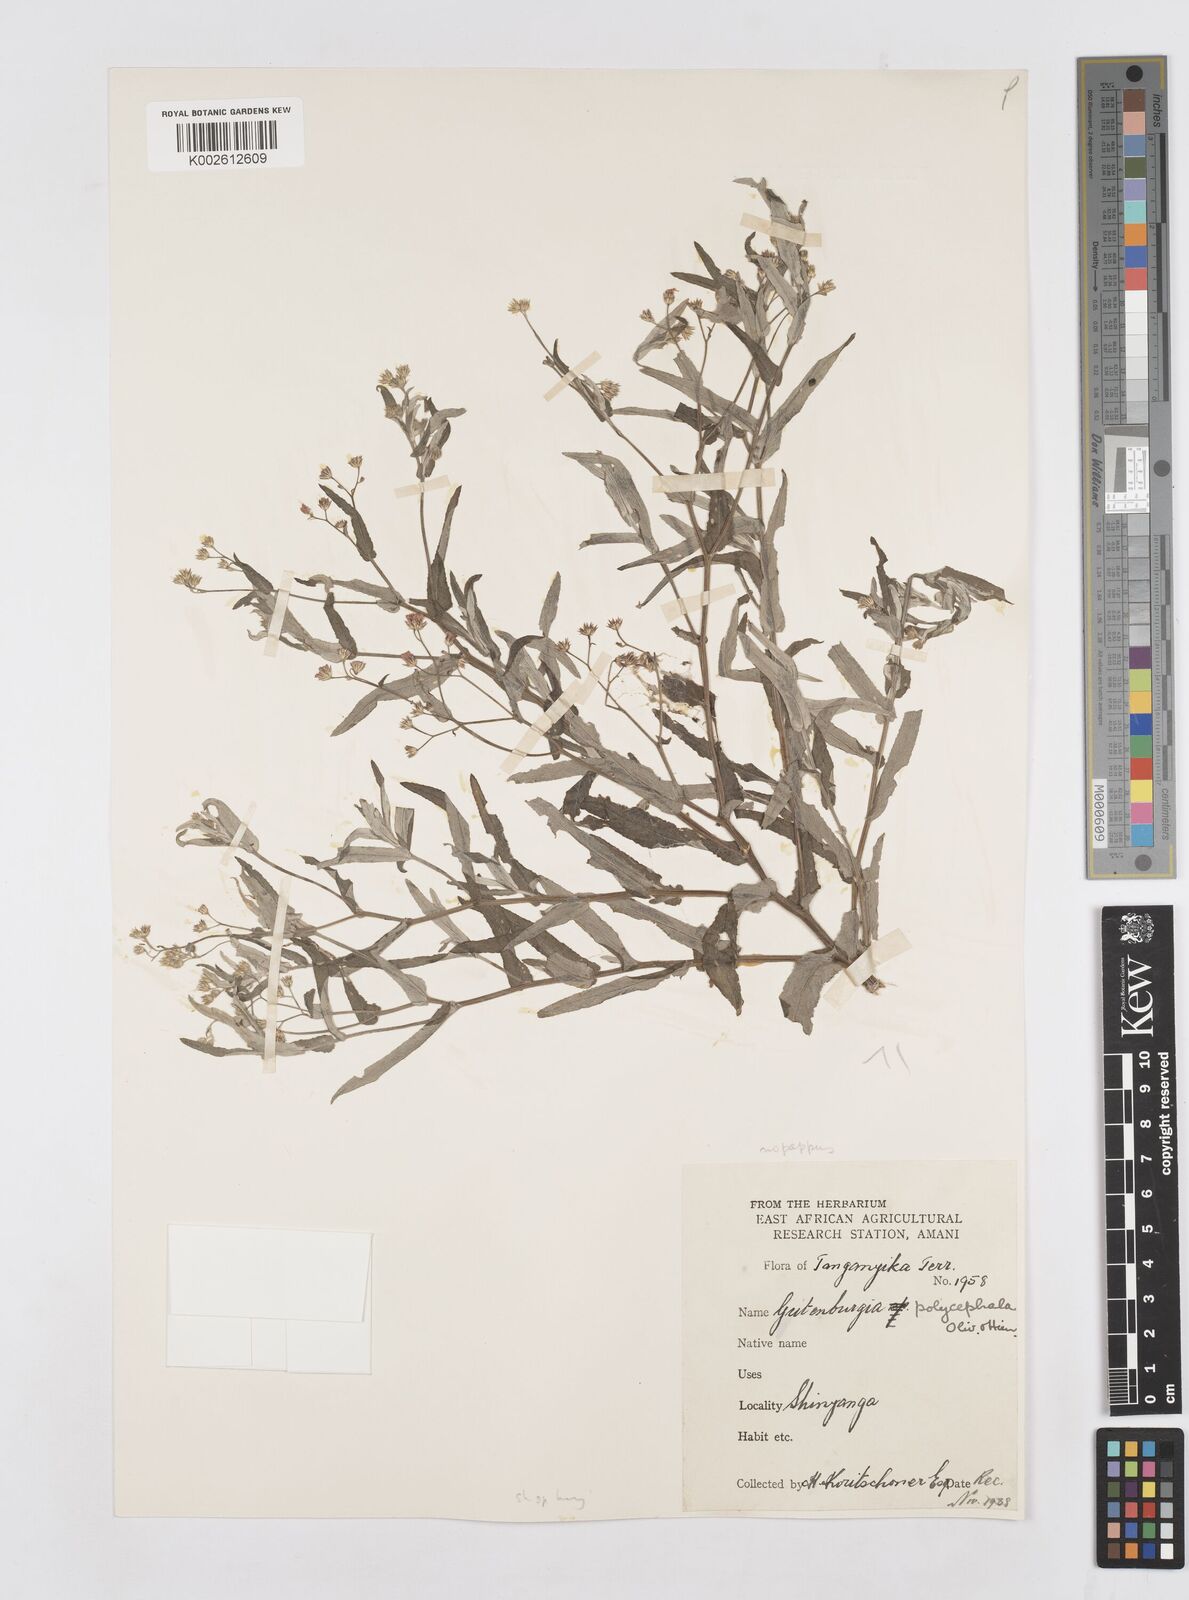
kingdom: Plantae
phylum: Tracheophyta
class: Magnoliopsida
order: Asterales
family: Asteraceae
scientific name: Asteraceae
